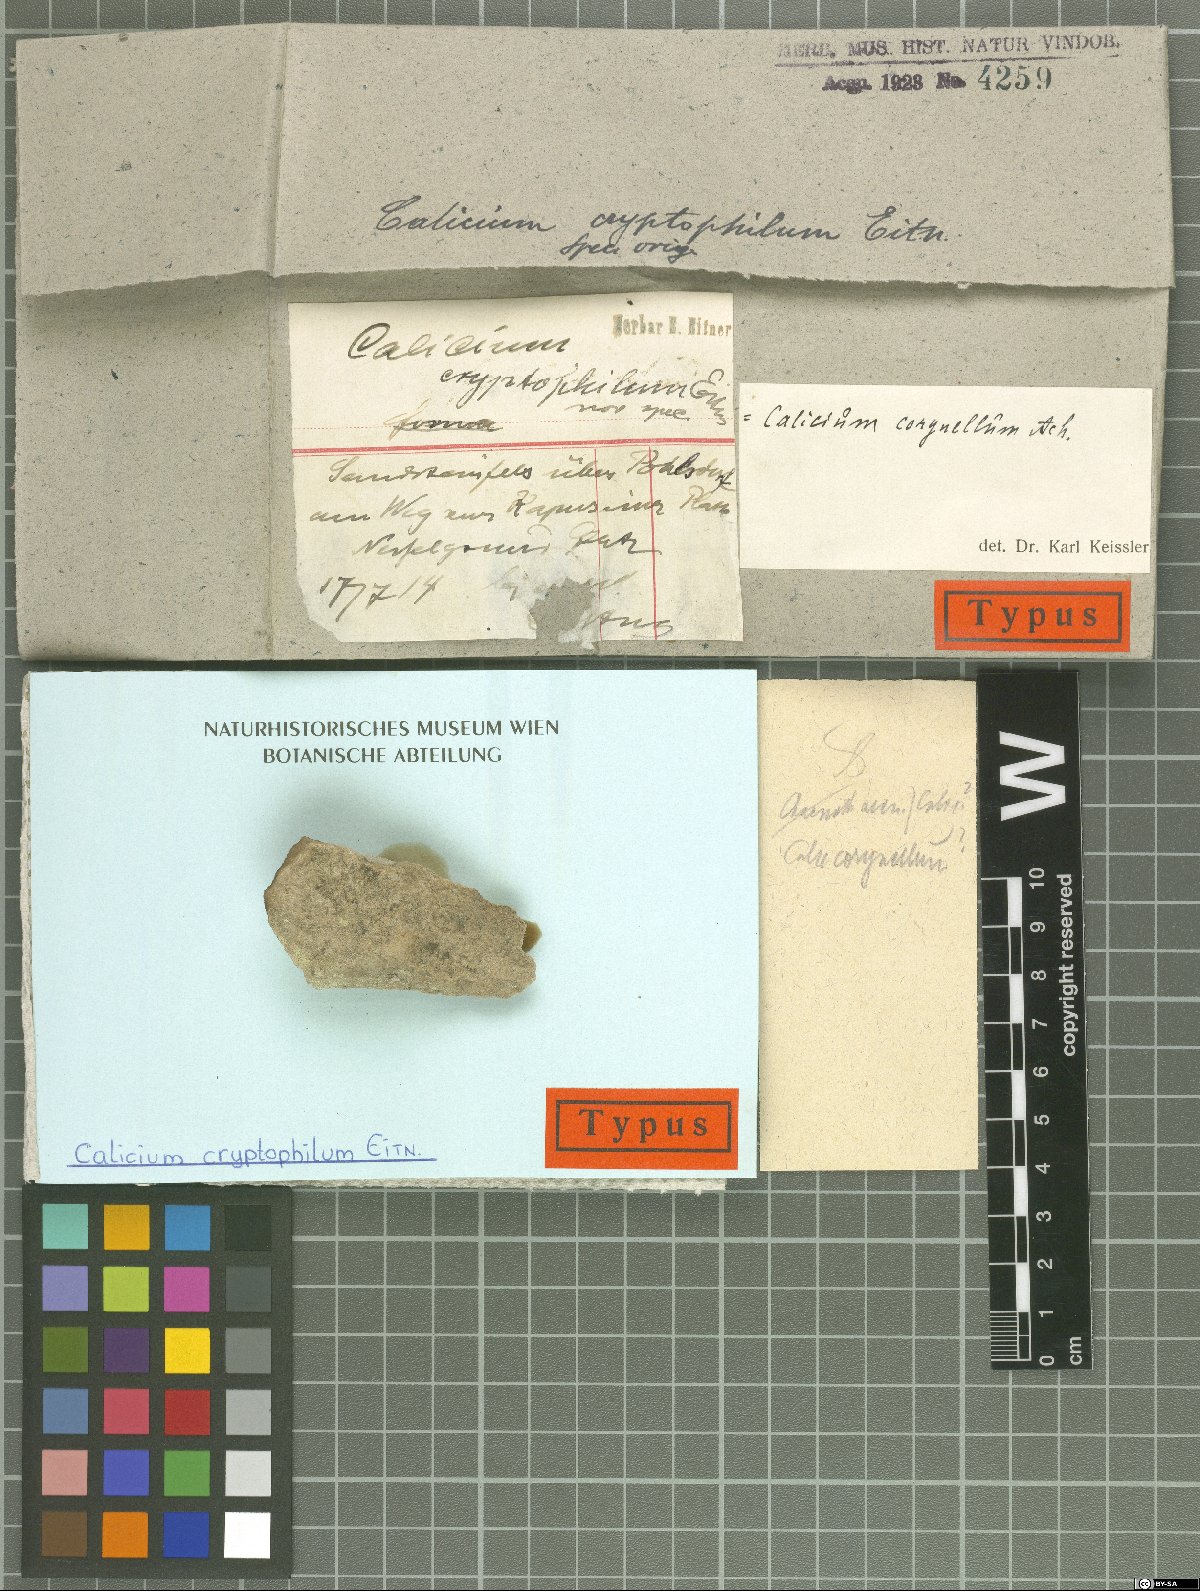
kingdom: Fungi
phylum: Ascomycota
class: Lecanoromycetes
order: Caliciales
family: Caliciaceae
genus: Calicium
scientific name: Calicium
